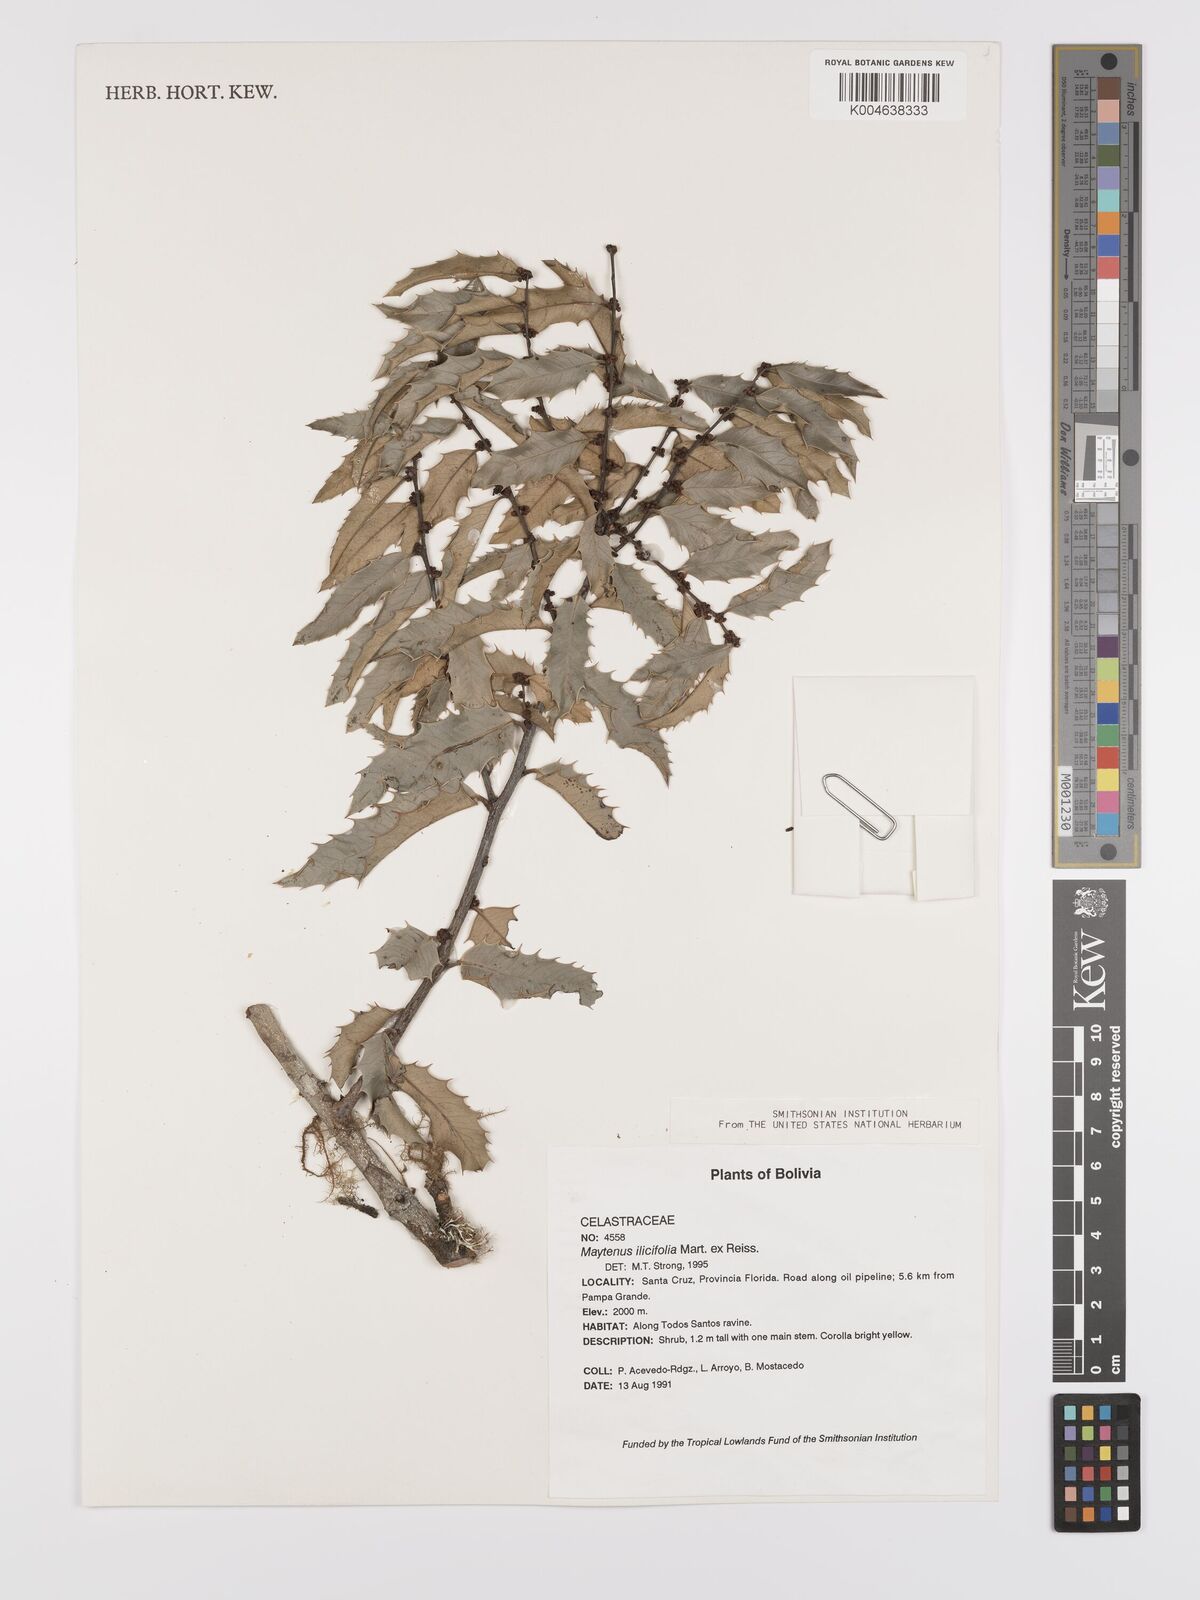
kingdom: Plantae
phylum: Tracheophyta
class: Magnoliopsida
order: Celastrales
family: Celastraceae
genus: Maytenus
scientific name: Maytenus
